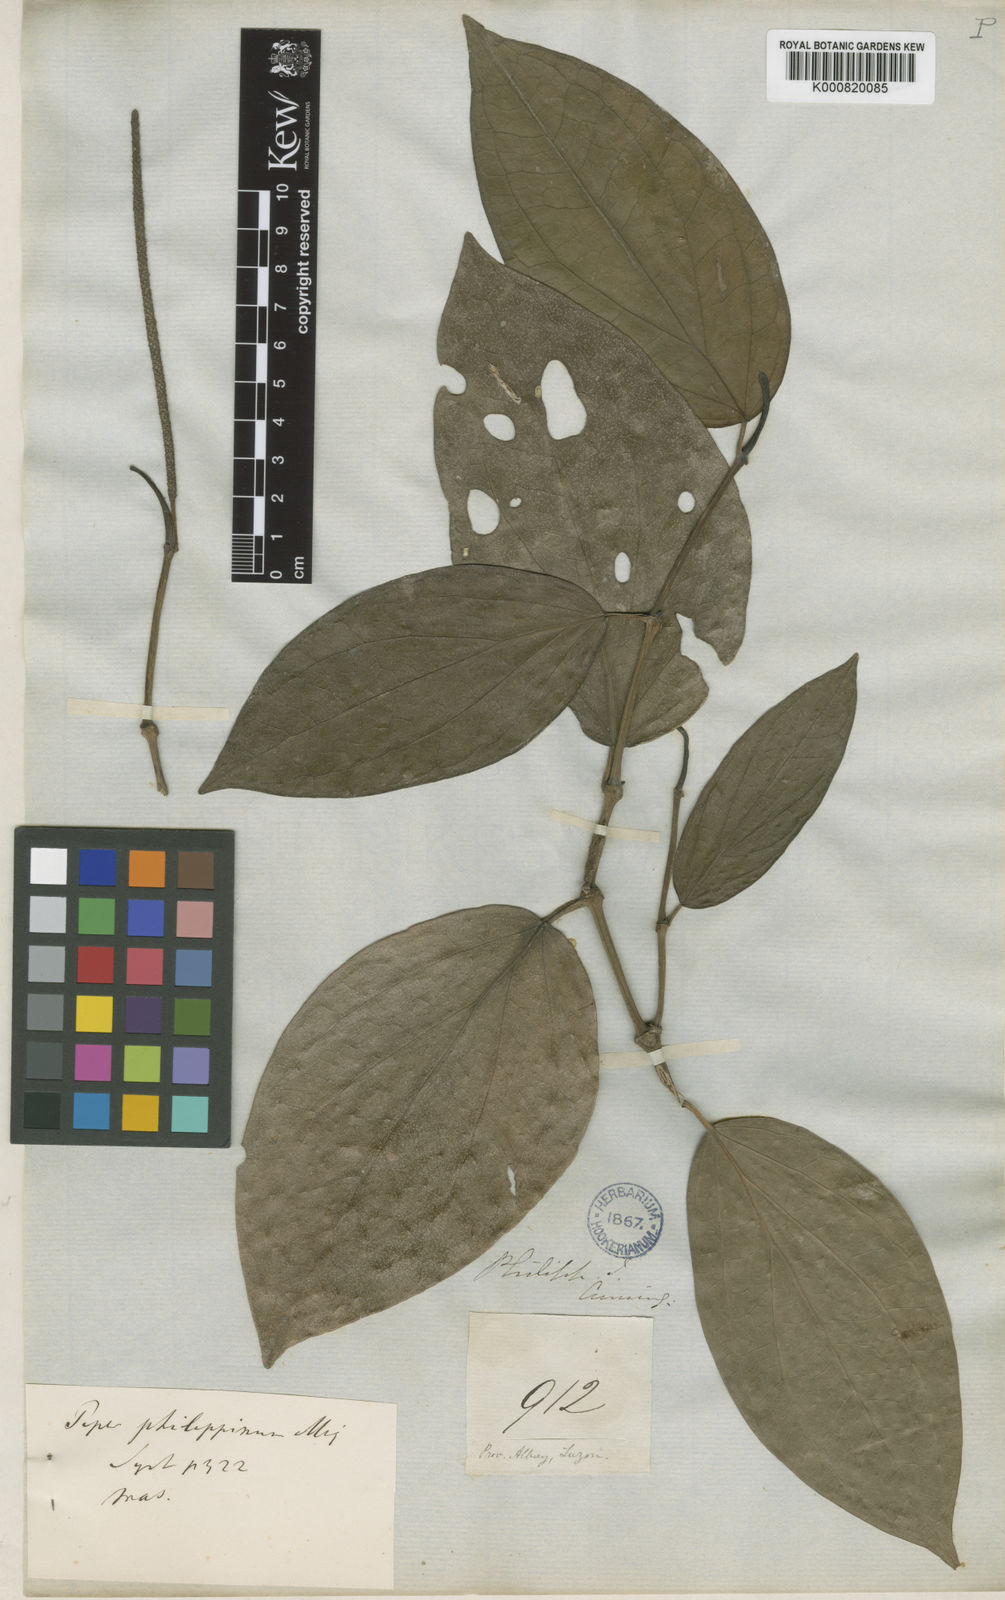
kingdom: Plantae
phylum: Tracheophyta
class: Magnoliopsida
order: Piperales
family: Piperaceae
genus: Piper
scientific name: Piper philippinum
